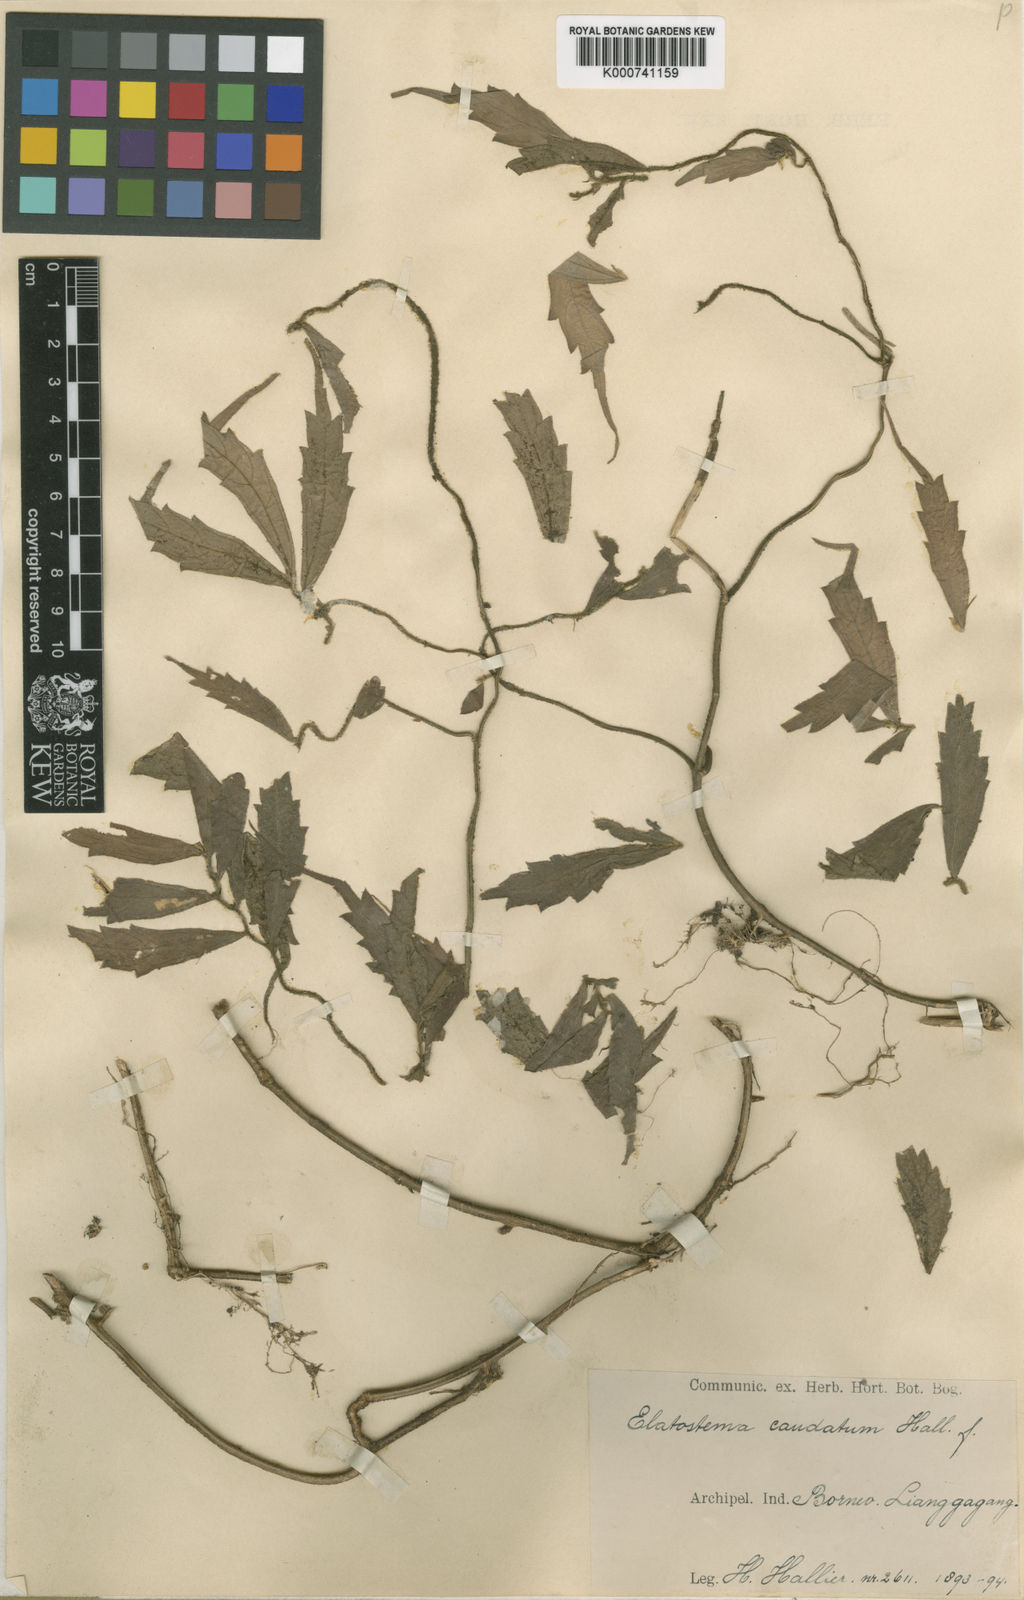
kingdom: Plantae
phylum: Tracheophyta
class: Magnoliopsida
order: Rosales
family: Urticaceae
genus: Elatostematoides
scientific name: Elatostematoides caudatum
